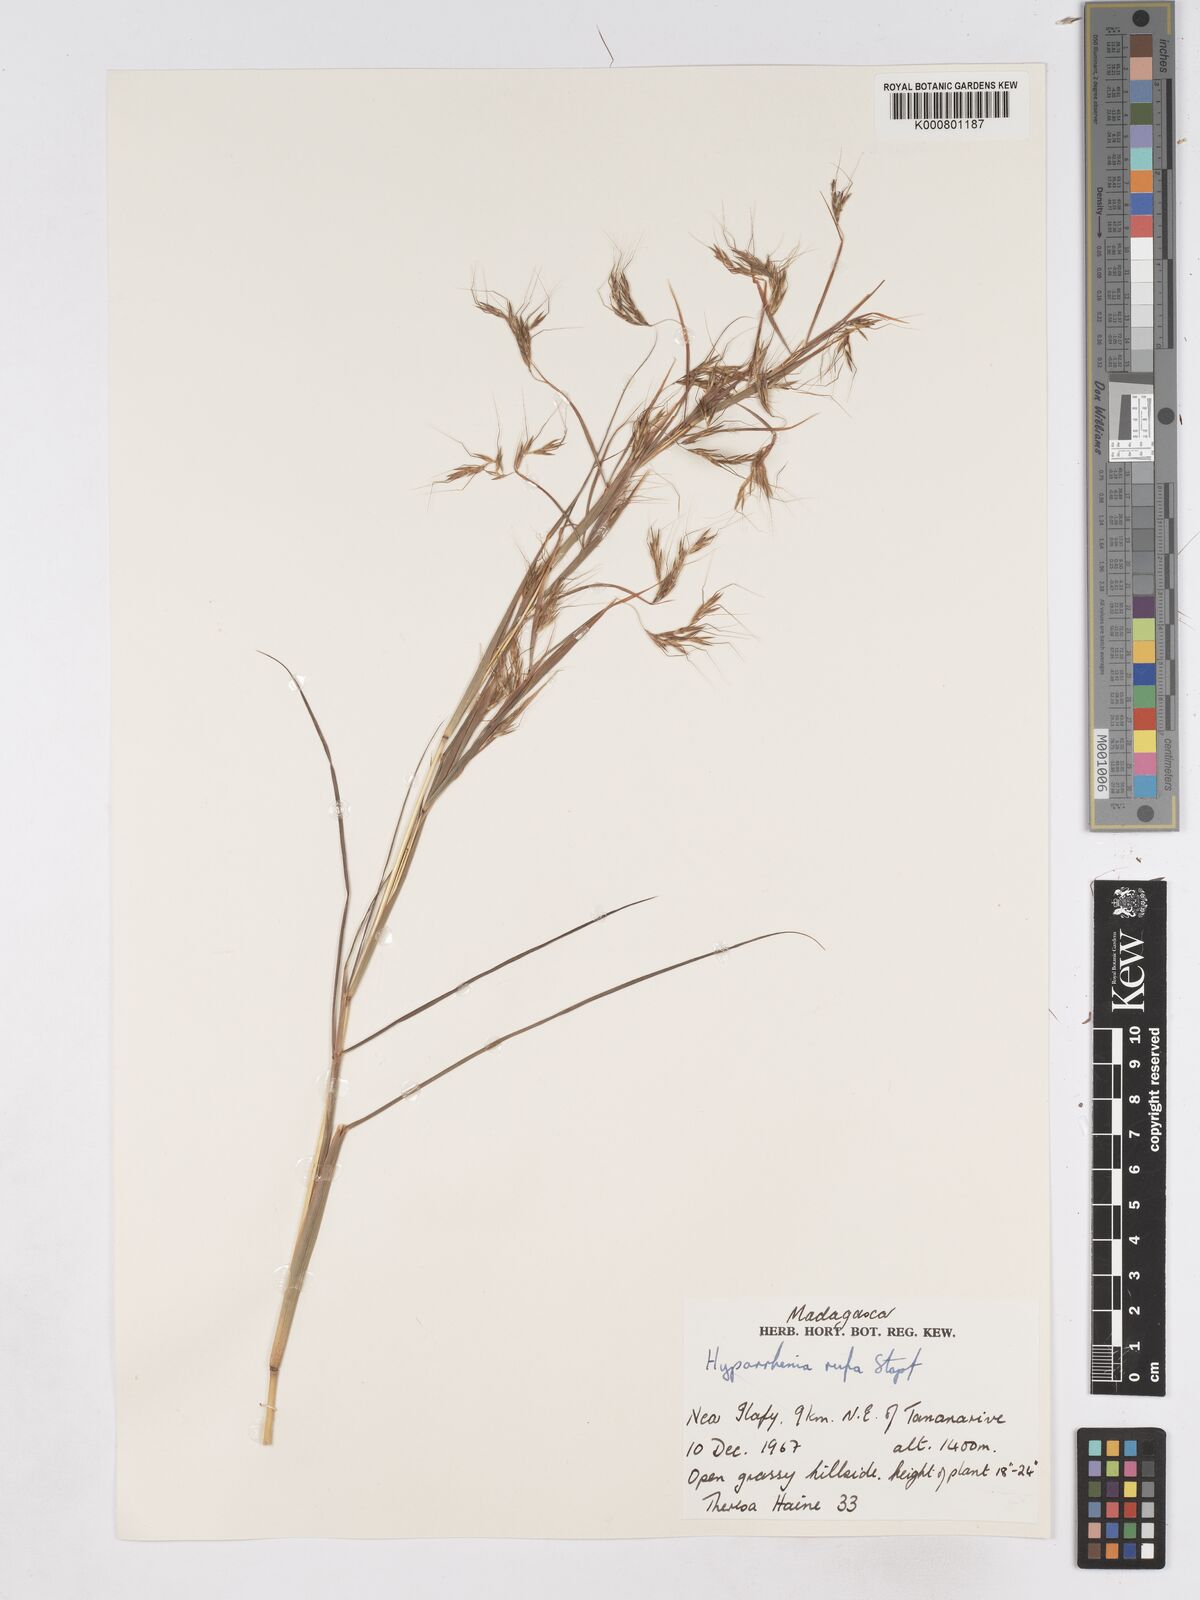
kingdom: Plantae
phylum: Tracheophyta
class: Liliopsida
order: Poales
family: Poaceae
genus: Hyparrhenia
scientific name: Hyparrhenia rufa
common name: Jaraguagrass
